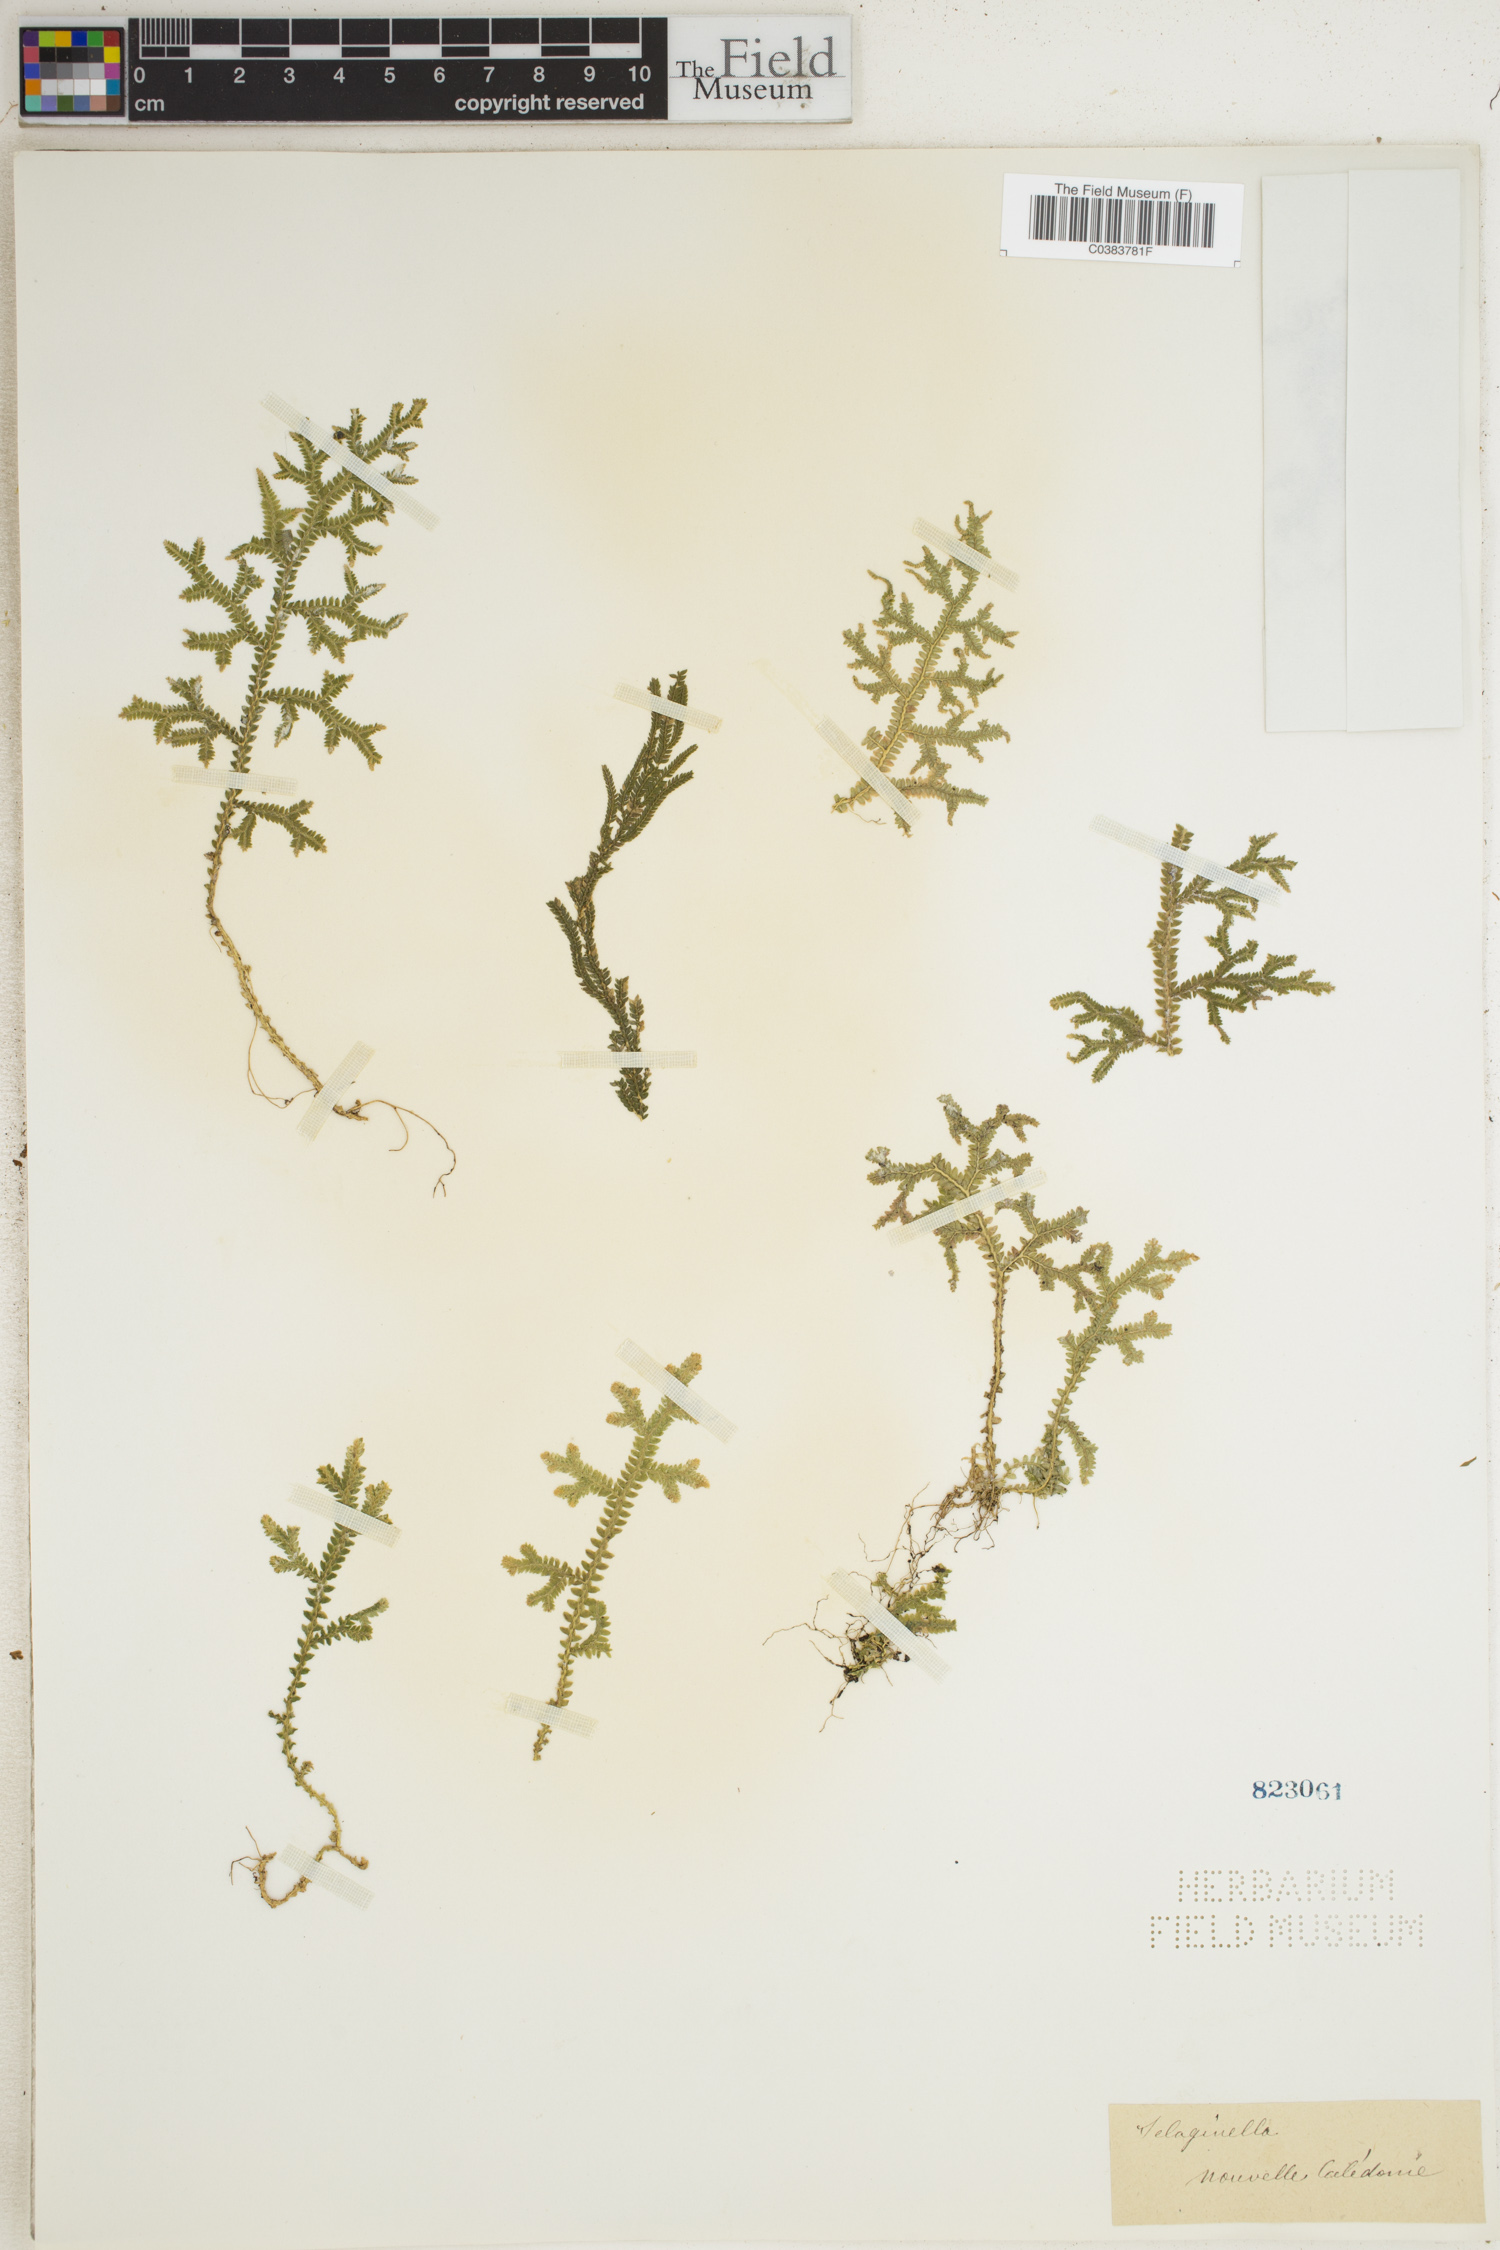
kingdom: Plantae
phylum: Tracheophyta
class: Lycopodiopsida
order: Selaginellales
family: Selaginellaceae
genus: Selaginella
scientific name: Selaginella
